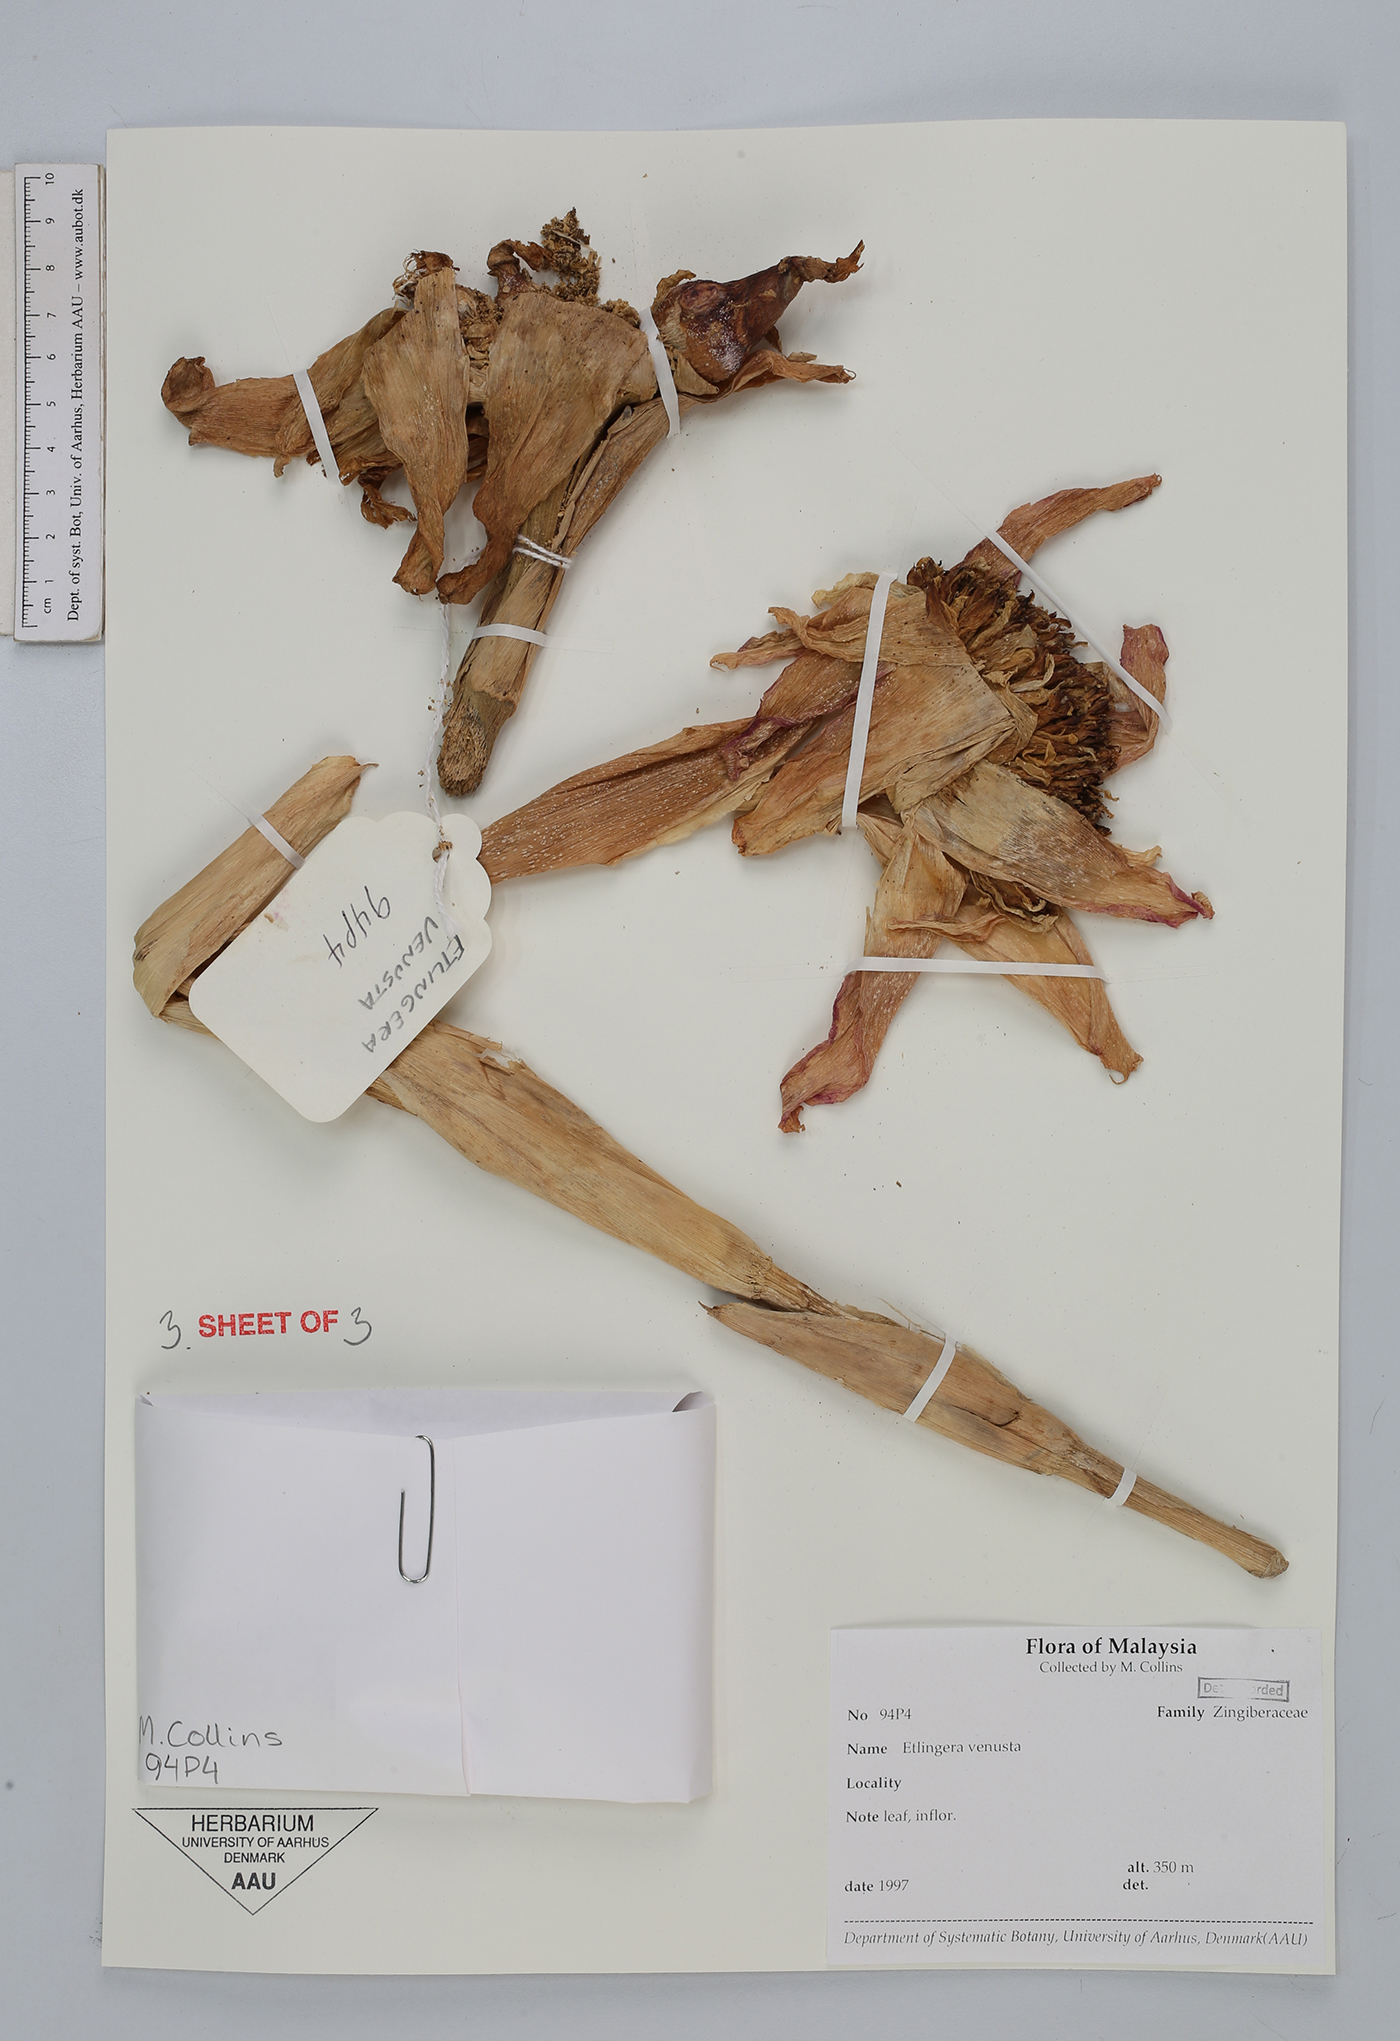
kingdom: Plantae
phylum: Tracheophyta
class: Liliopsida
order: Zingiberales
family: Zingiberaceae
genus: Etlingera
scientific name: Etlingera venusta
